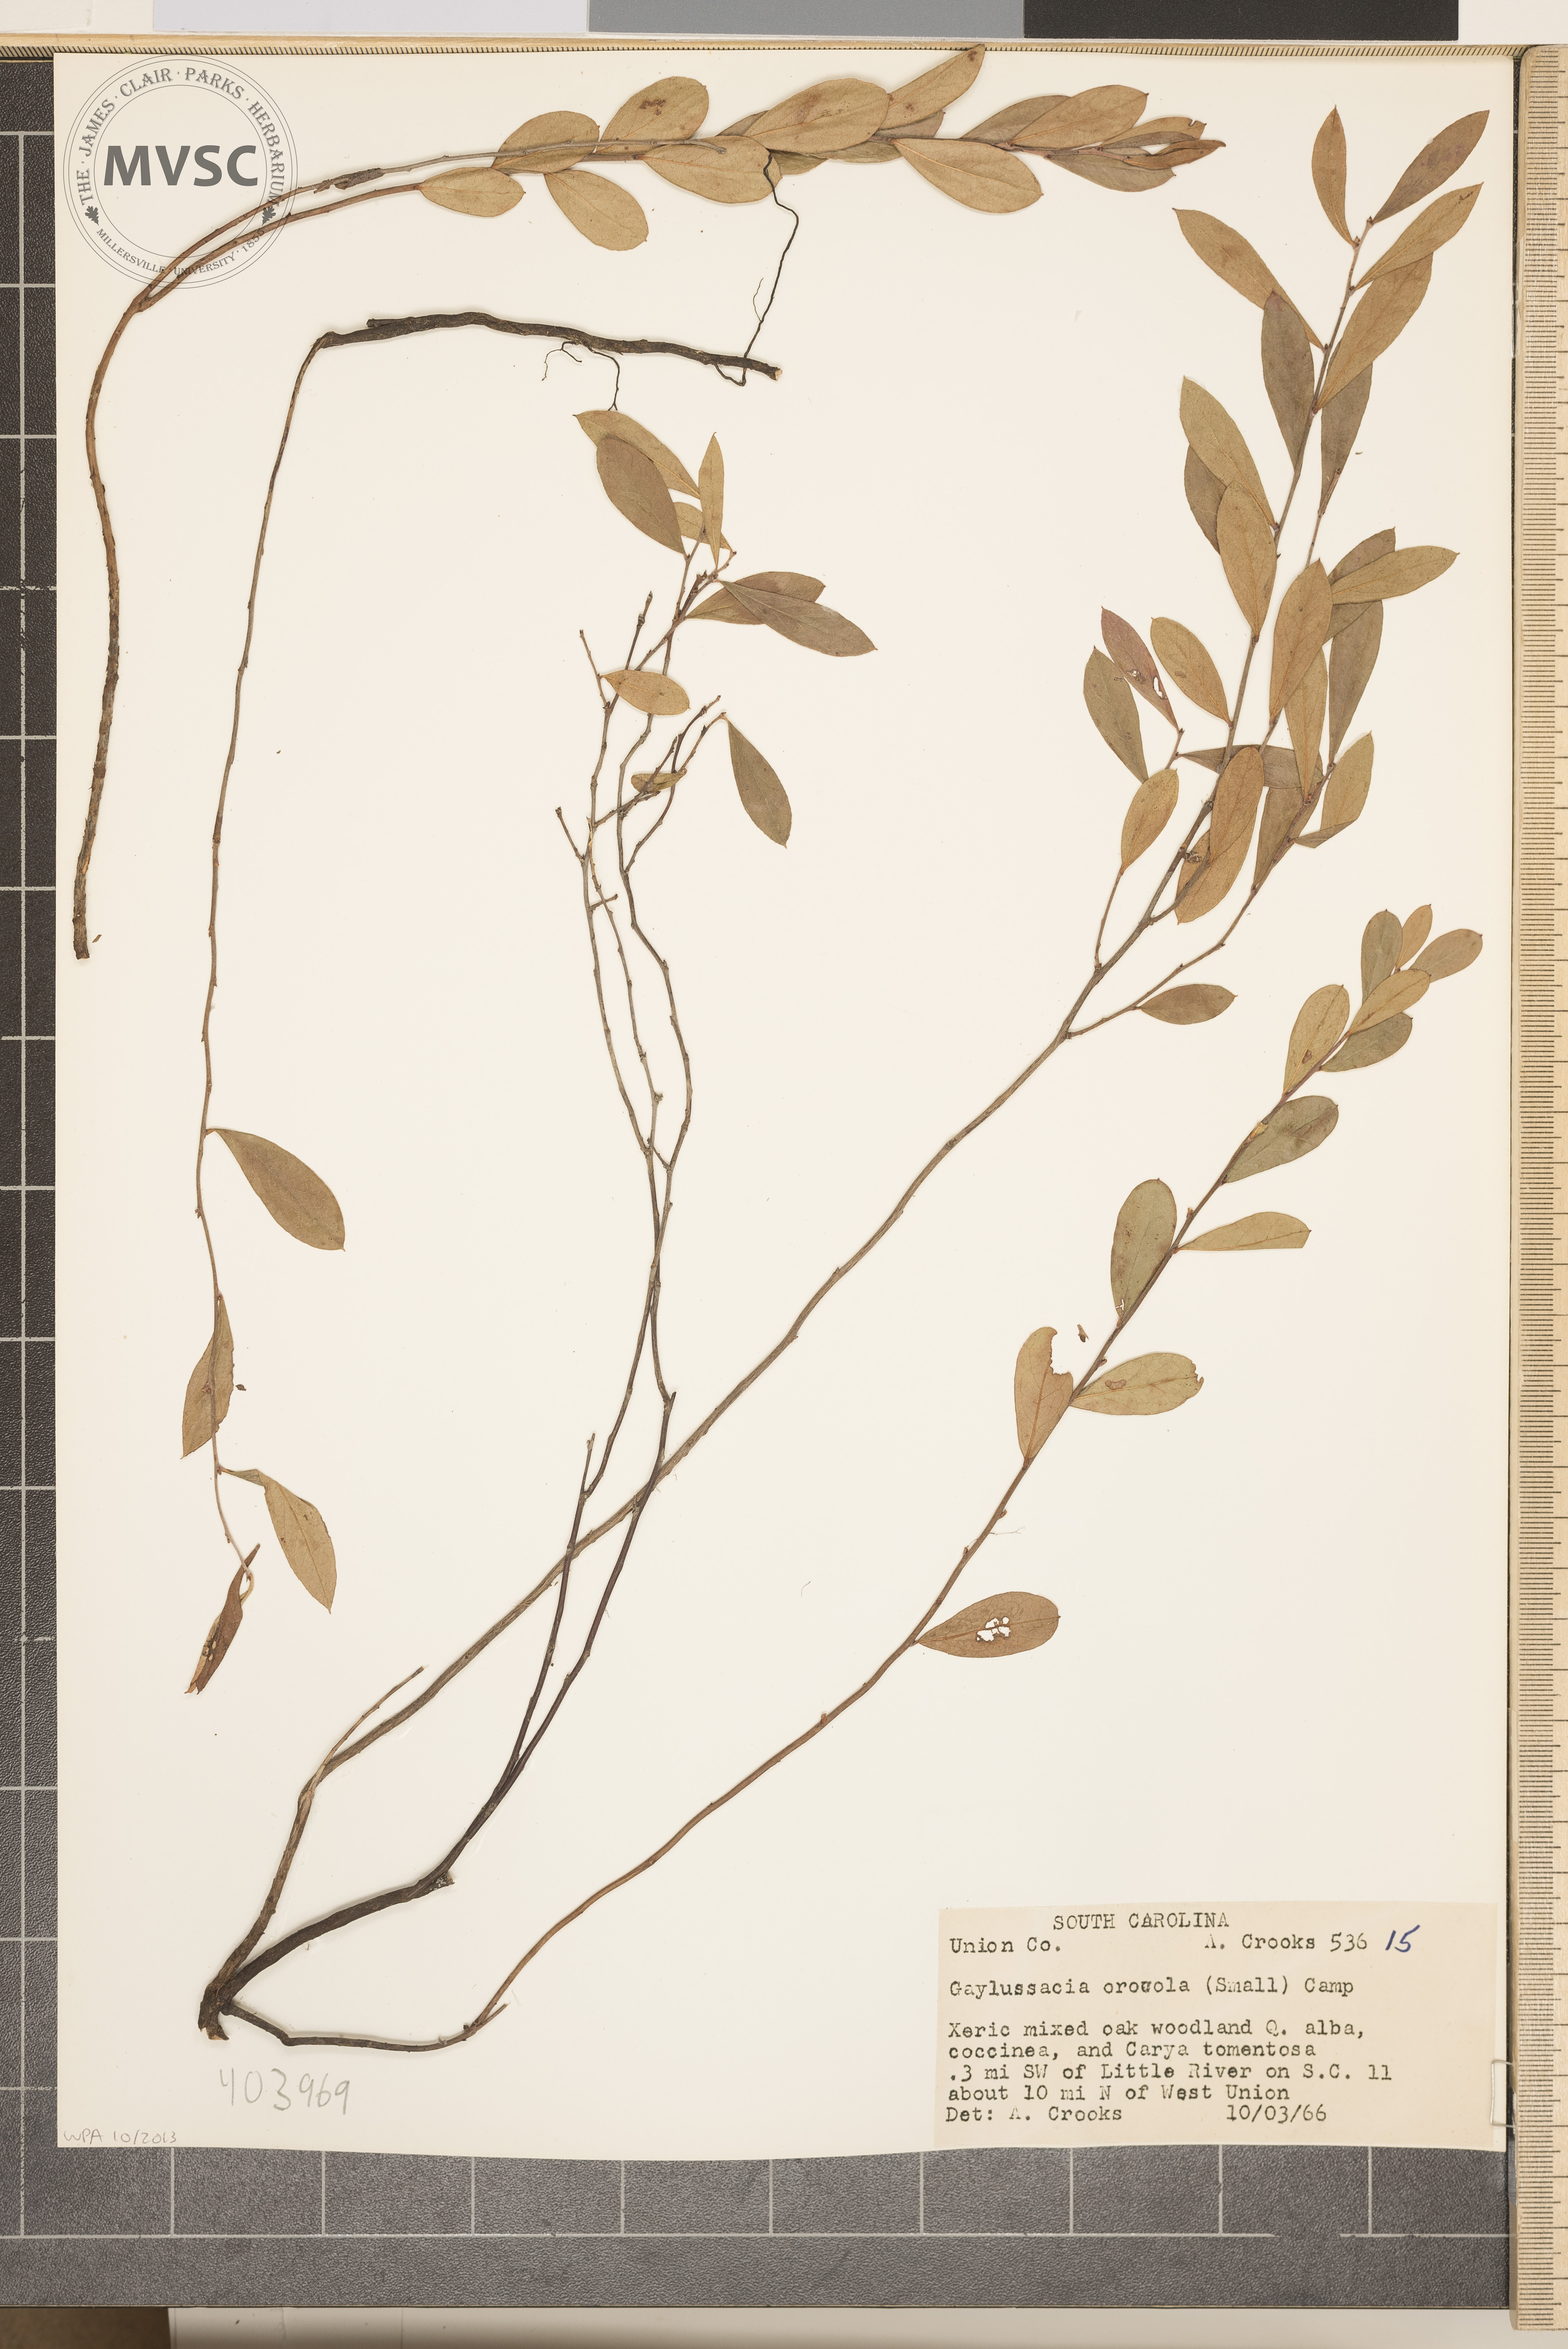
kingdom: Plantae
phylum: Tracheophyta
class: Magnoliopsida
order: Ericales
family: Ericaceae
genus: Gaylussacia
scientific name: Gaylussacia dumosa
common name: Dwarf huckleberry
